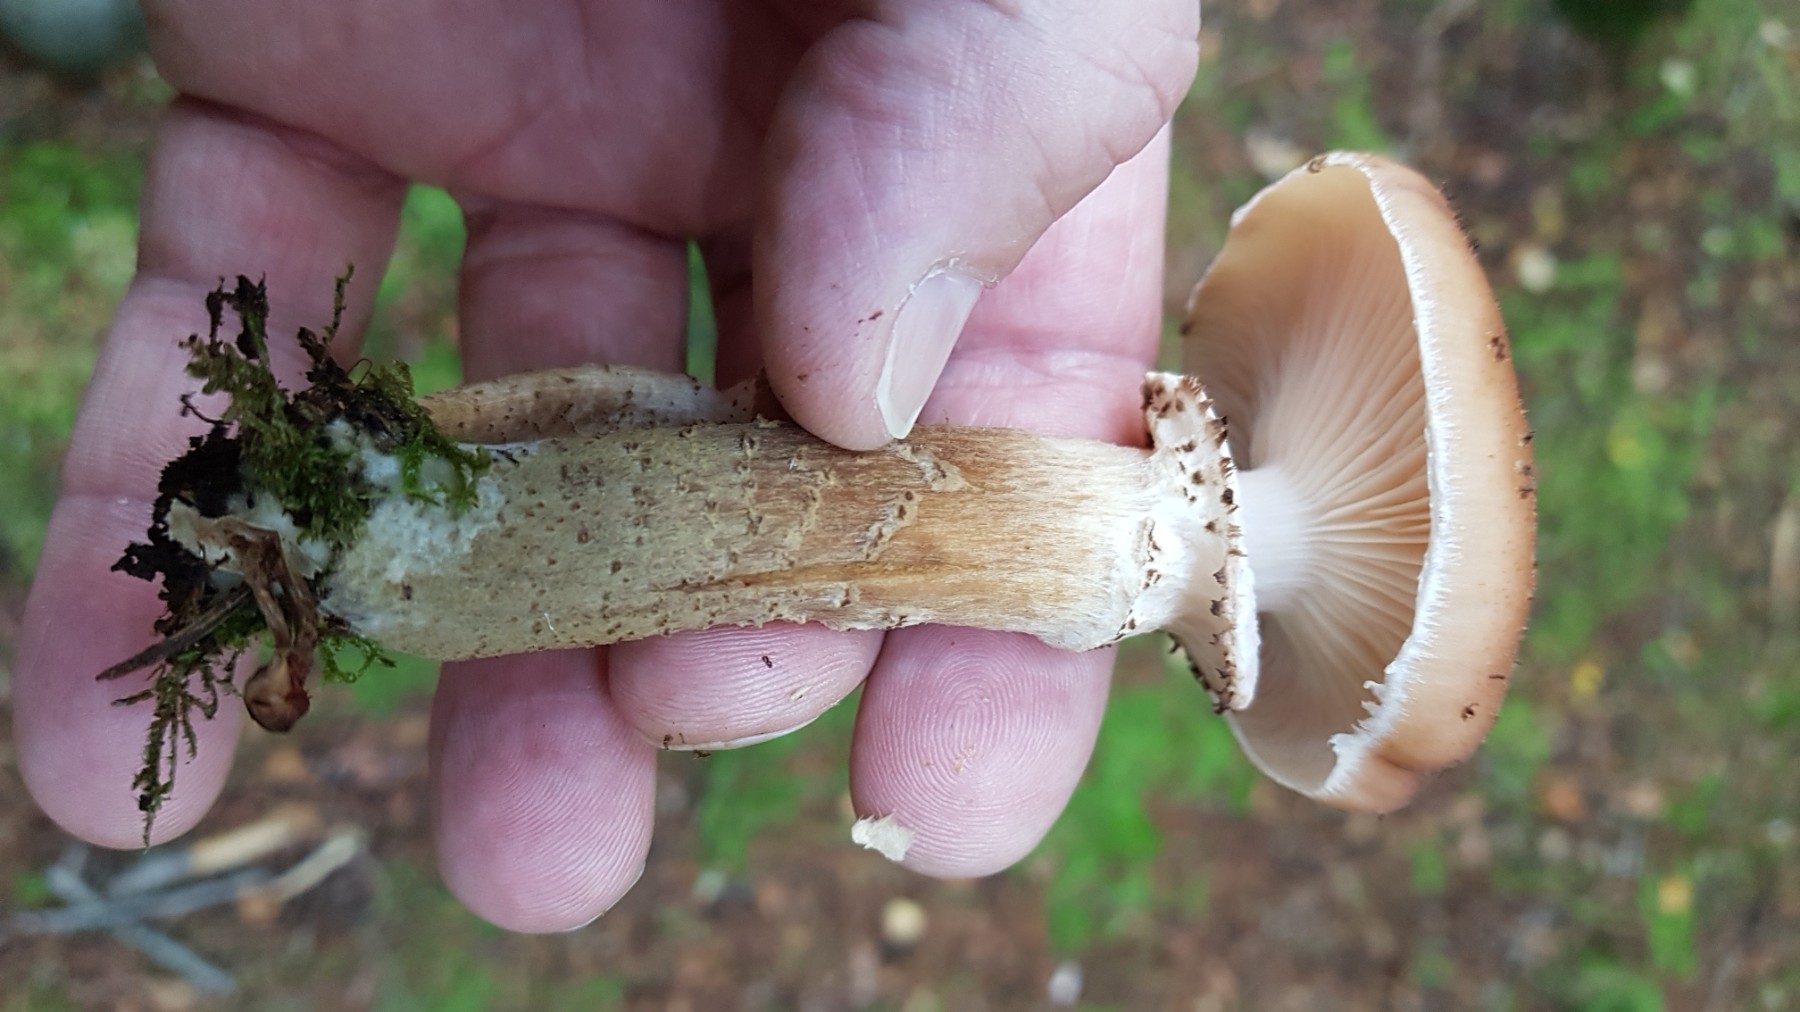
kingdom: Fungi
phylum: Basidiomycota
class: Agaricomycetes
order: Agaricales
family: Physalacriaceae
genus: Armillaria
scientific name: Armillaria ostoyae
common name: mørk honningsvamp
